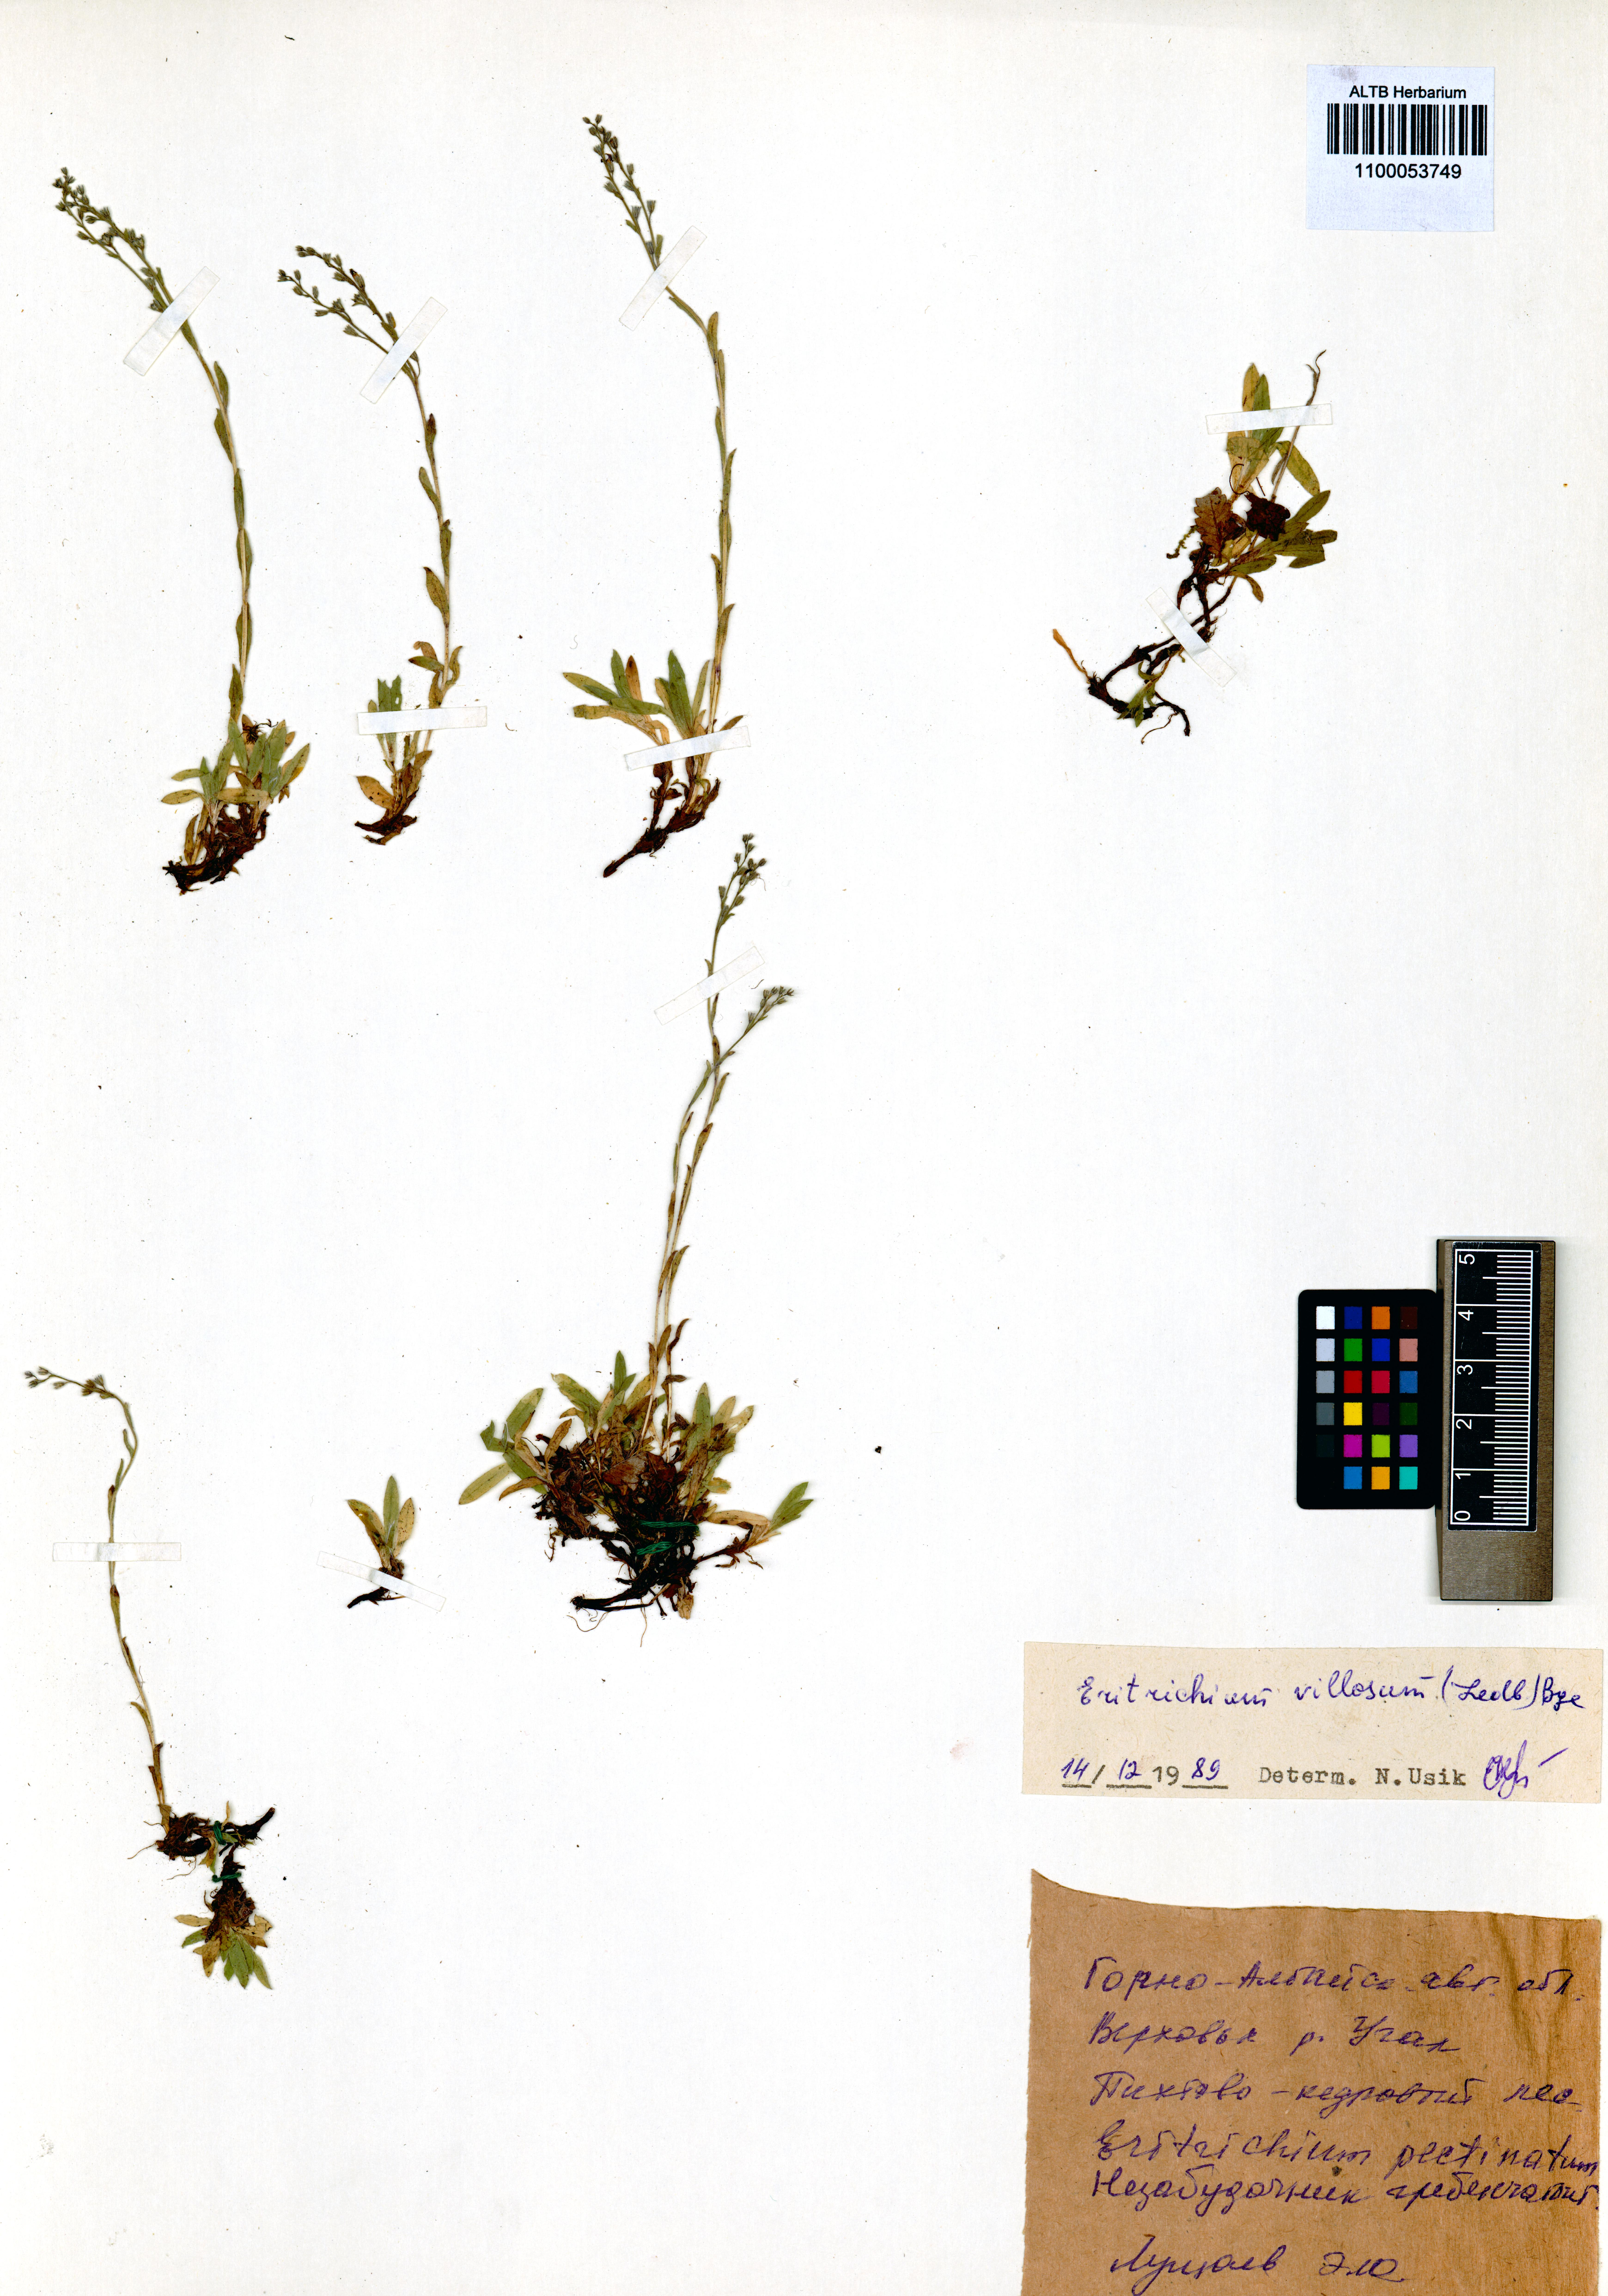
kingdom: Plantae
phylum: Tracheophyta
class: Magnoliopsida
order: Boraginales
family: Boraginaceae
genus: Eritrichium
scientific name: Eritrichium villosum
